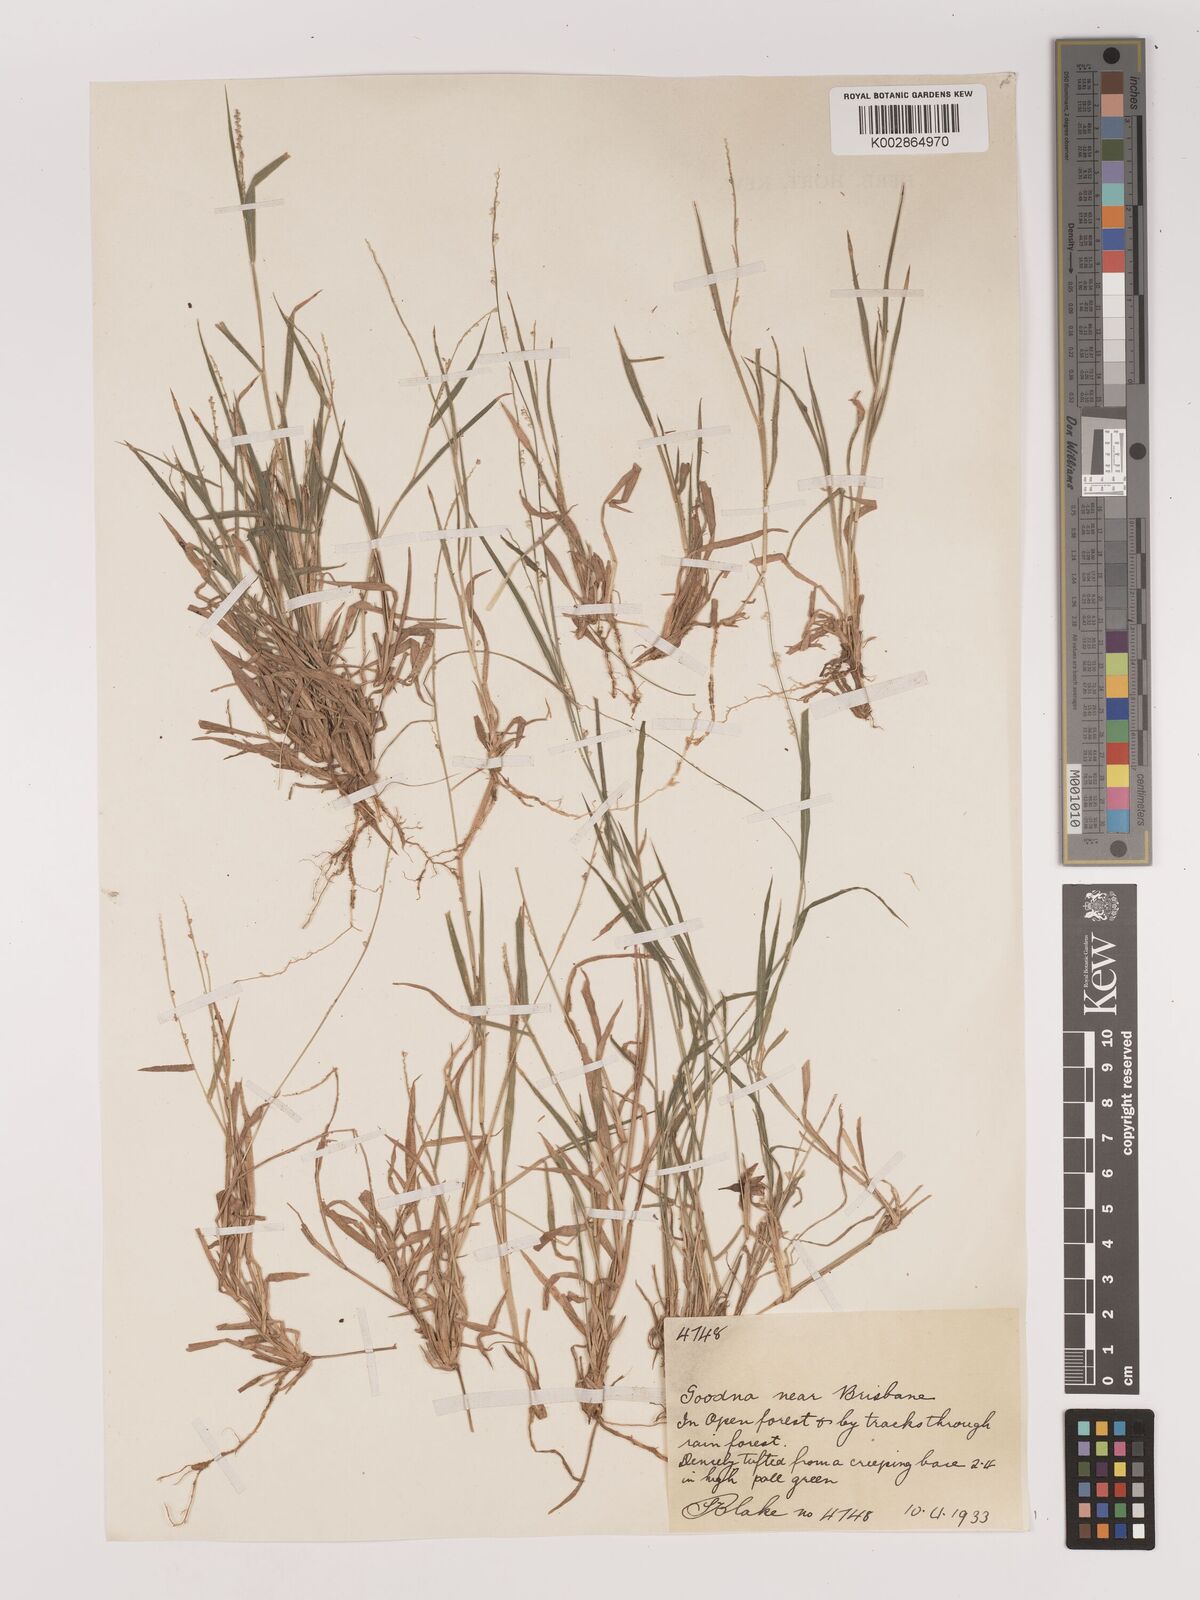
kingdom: Plantae
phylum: Tracheophyta
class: Liliopsida
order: Poales
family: Poaceae
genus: Setaria
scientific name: Setaria
